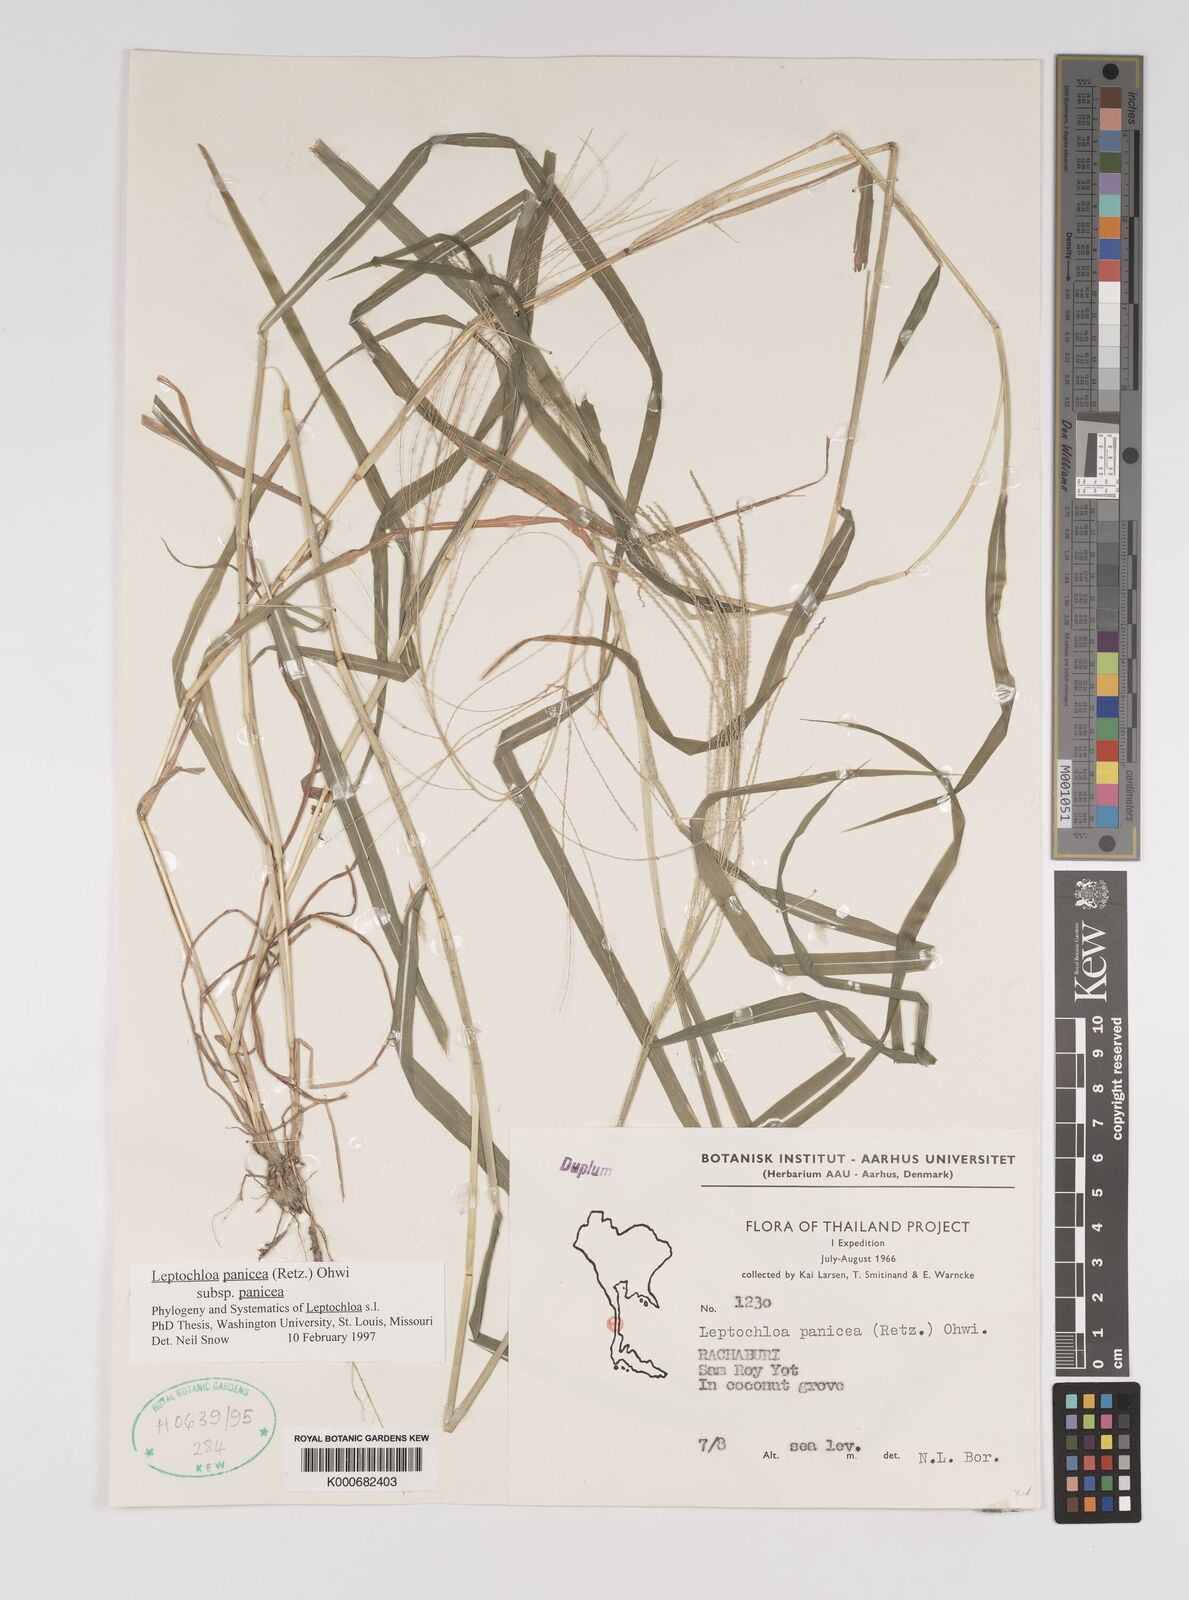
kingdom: Plantae
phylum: Tracheophyta
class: Liliopsida
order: Poales
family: Poaceae
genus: Leptochloa
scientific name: Leptochloa panicea
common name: Mucronate sprangletop
